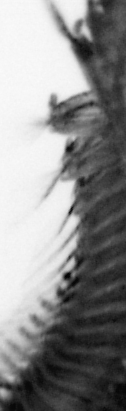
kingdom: Animalia
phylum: Annelida
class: Polychaeta
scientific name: Polychaeta
